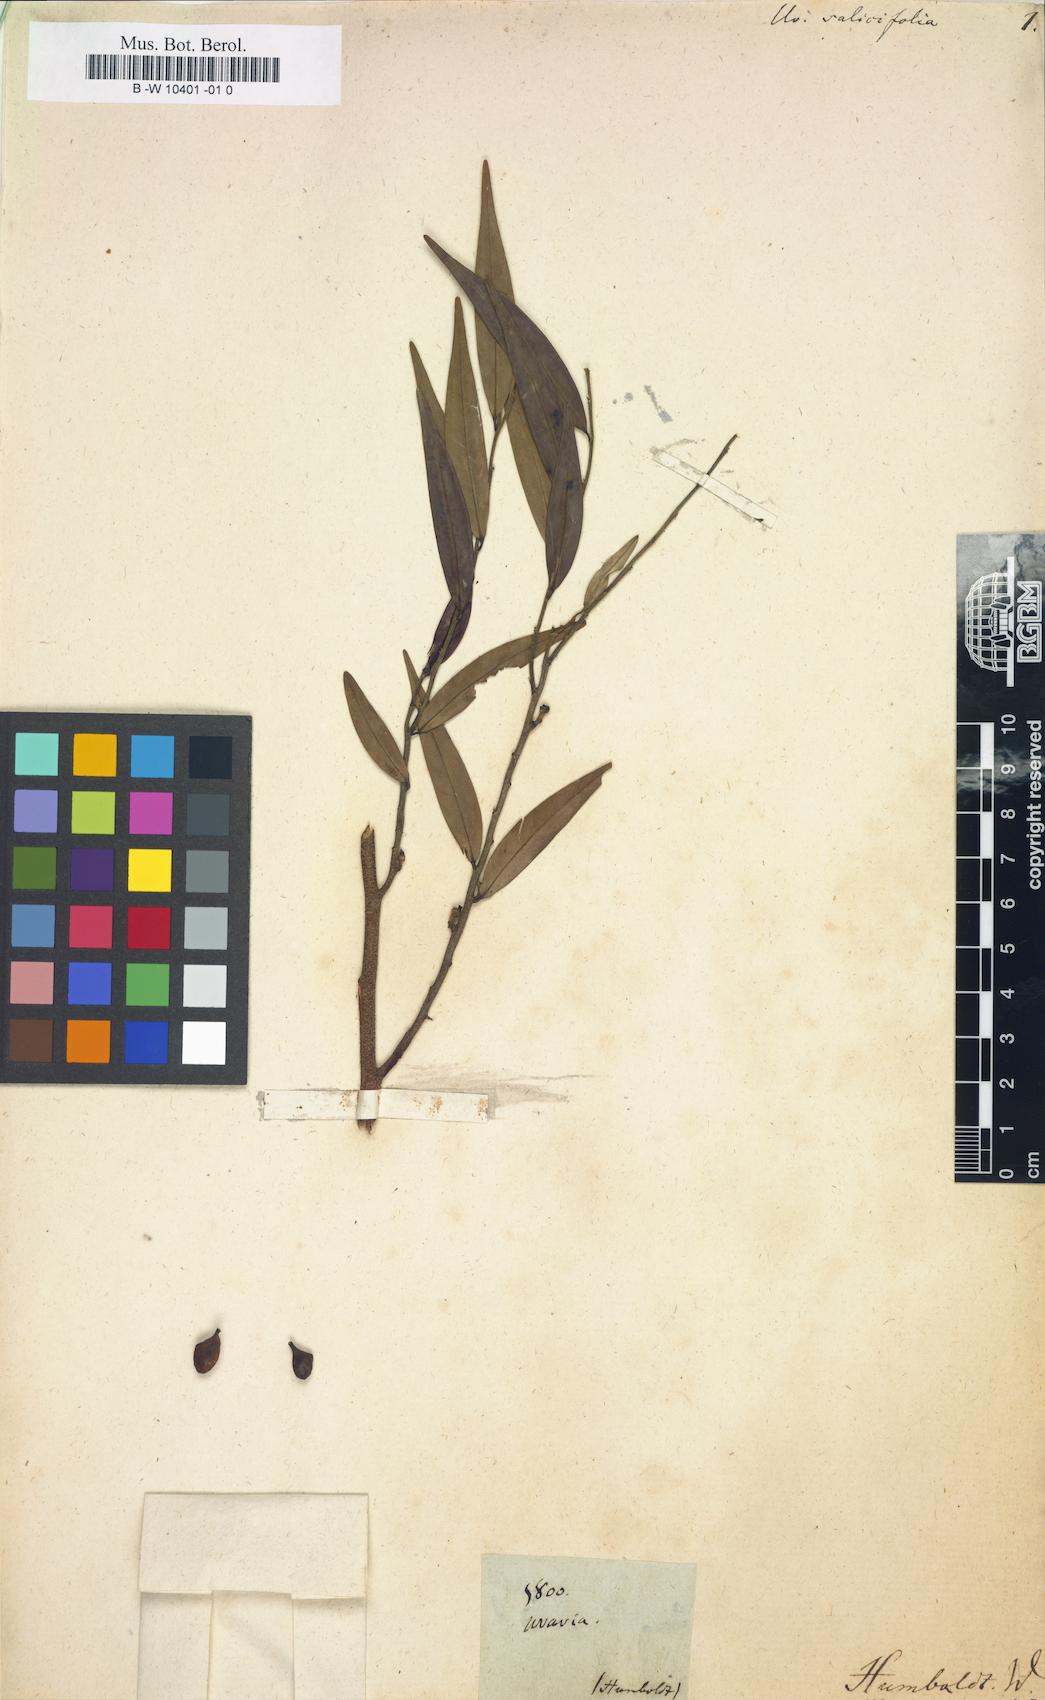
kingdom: Plantae
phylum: Tracheophyta
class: Magnoliopsida
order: Magnoliales
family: Annonaceae
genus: Uvaria
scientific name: Uvaria
